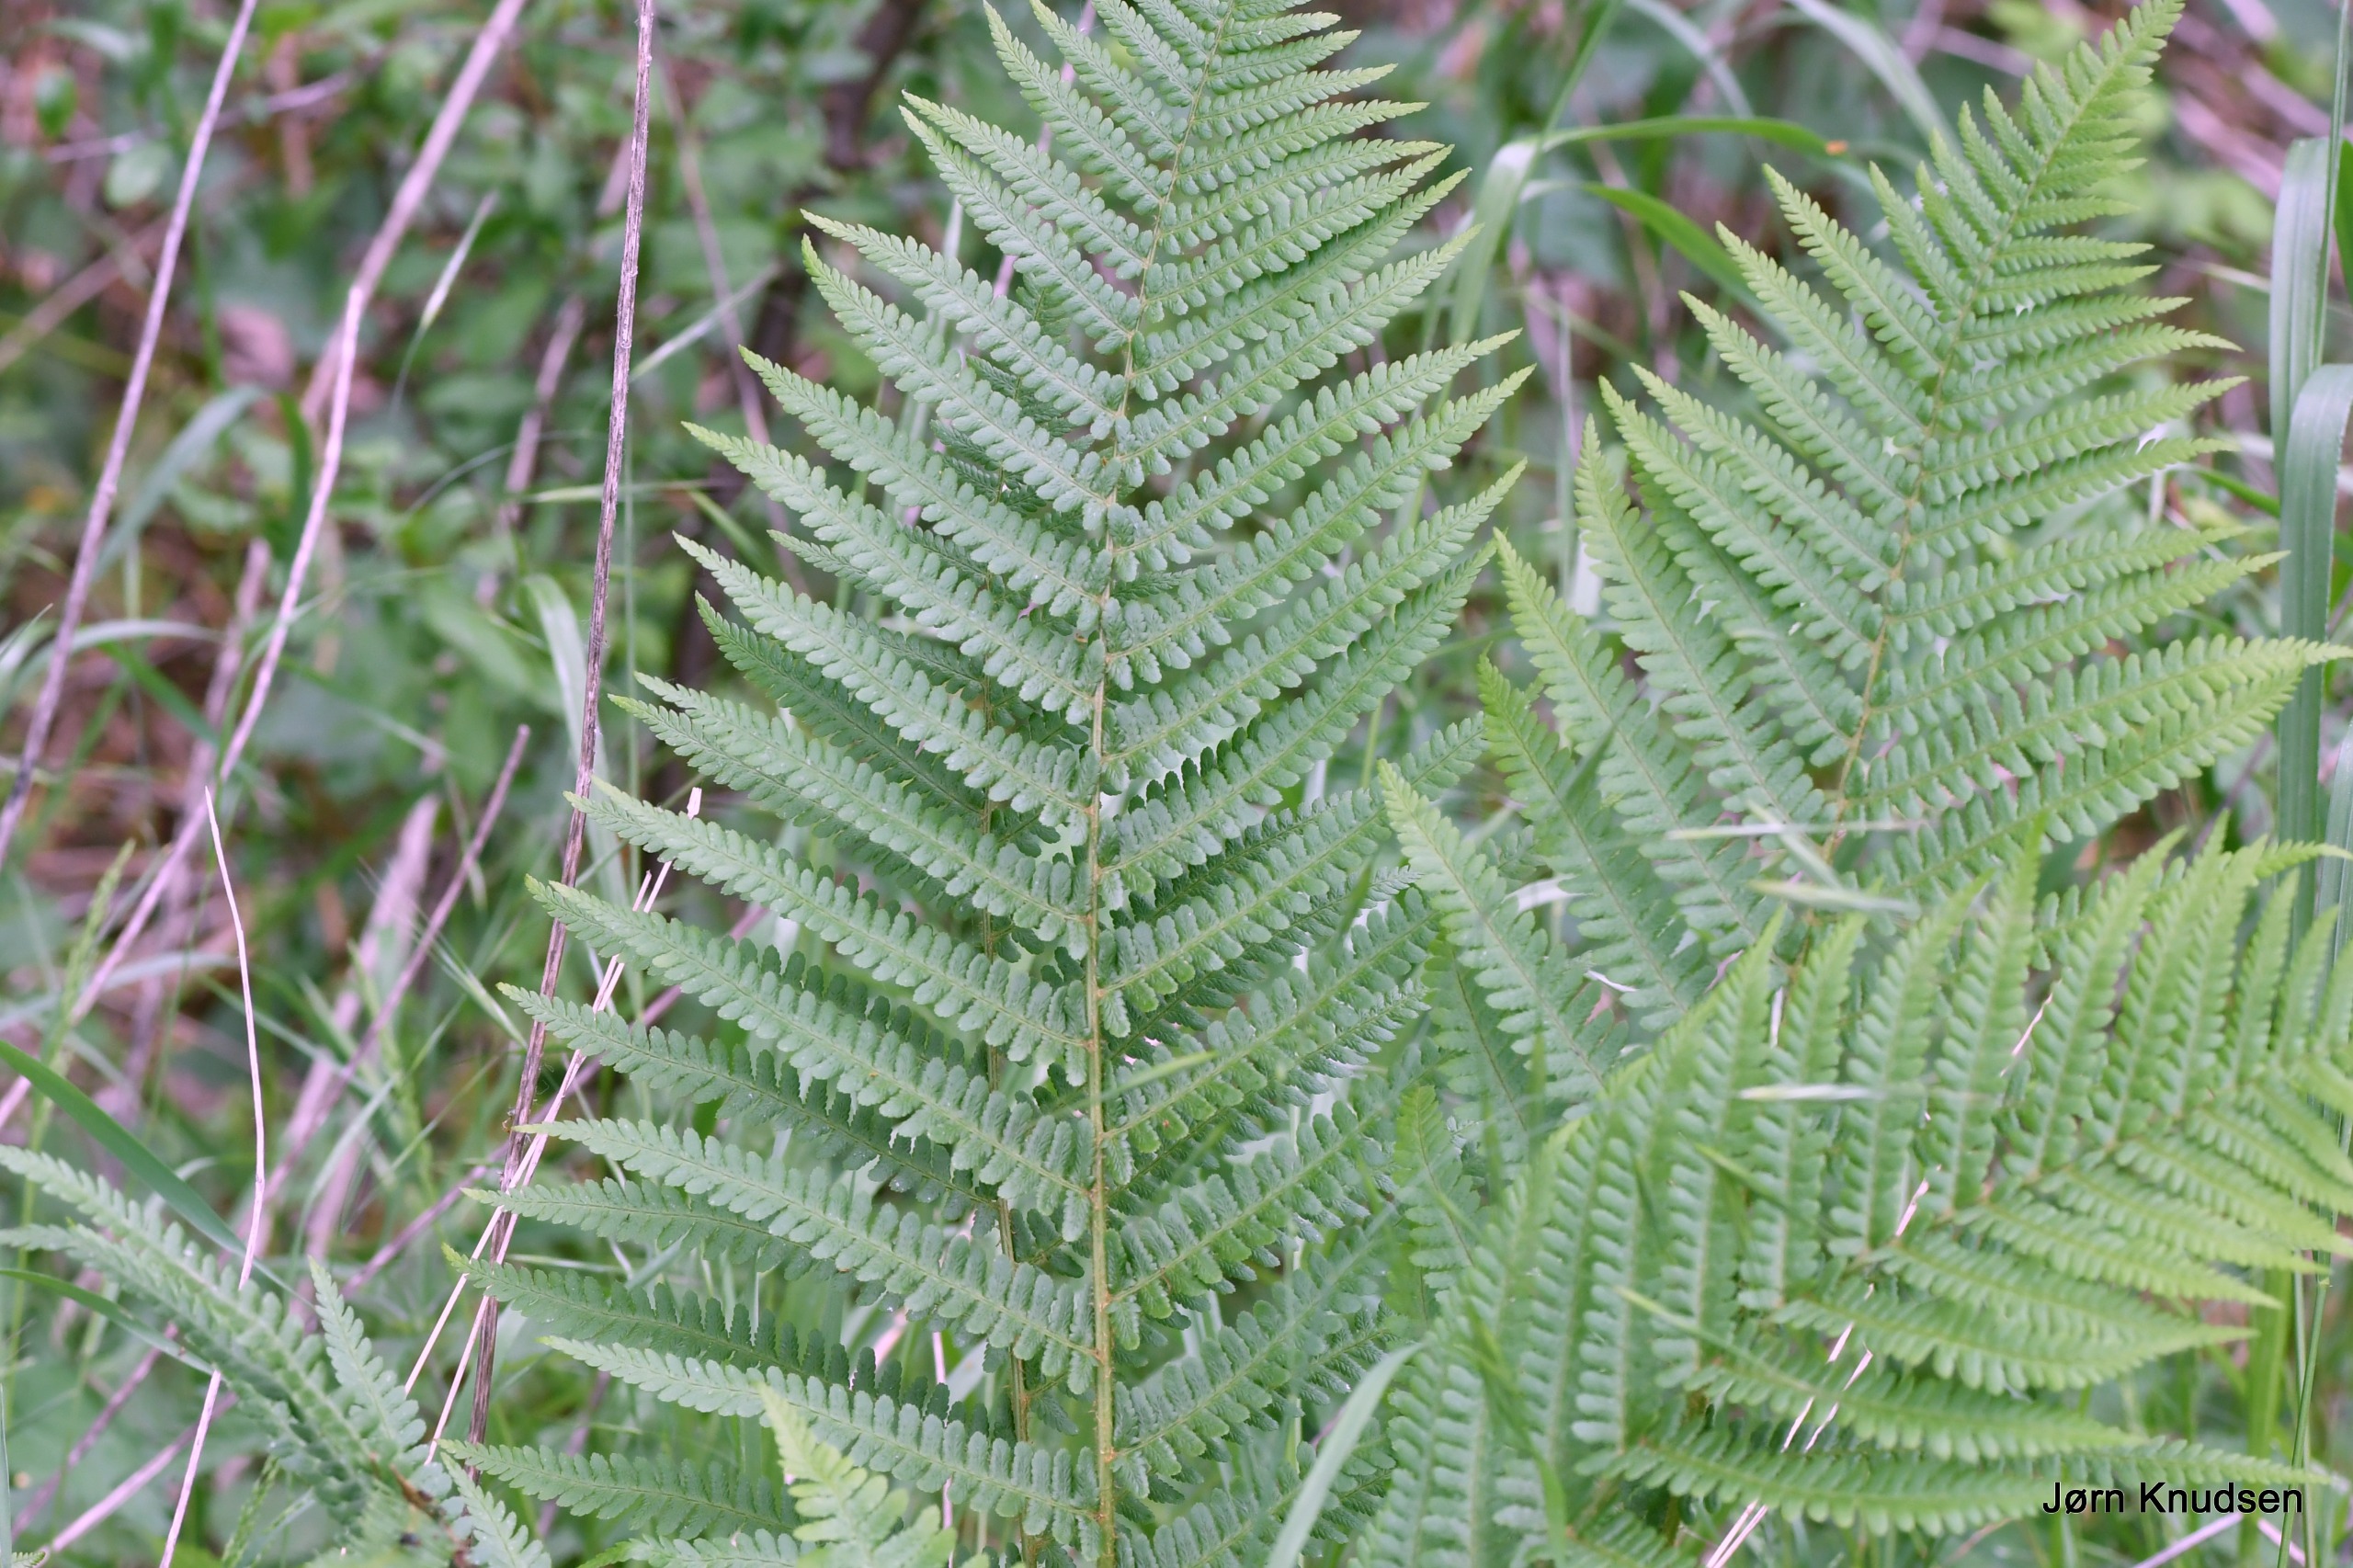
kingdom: Plantae
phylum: Tracheophyta
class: Polypodiopsida
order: Polypodiales
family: Dryopteridaceae
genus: Dryopteris
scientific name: Dryopteris filix-mas
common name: Almindelig mangeløv
